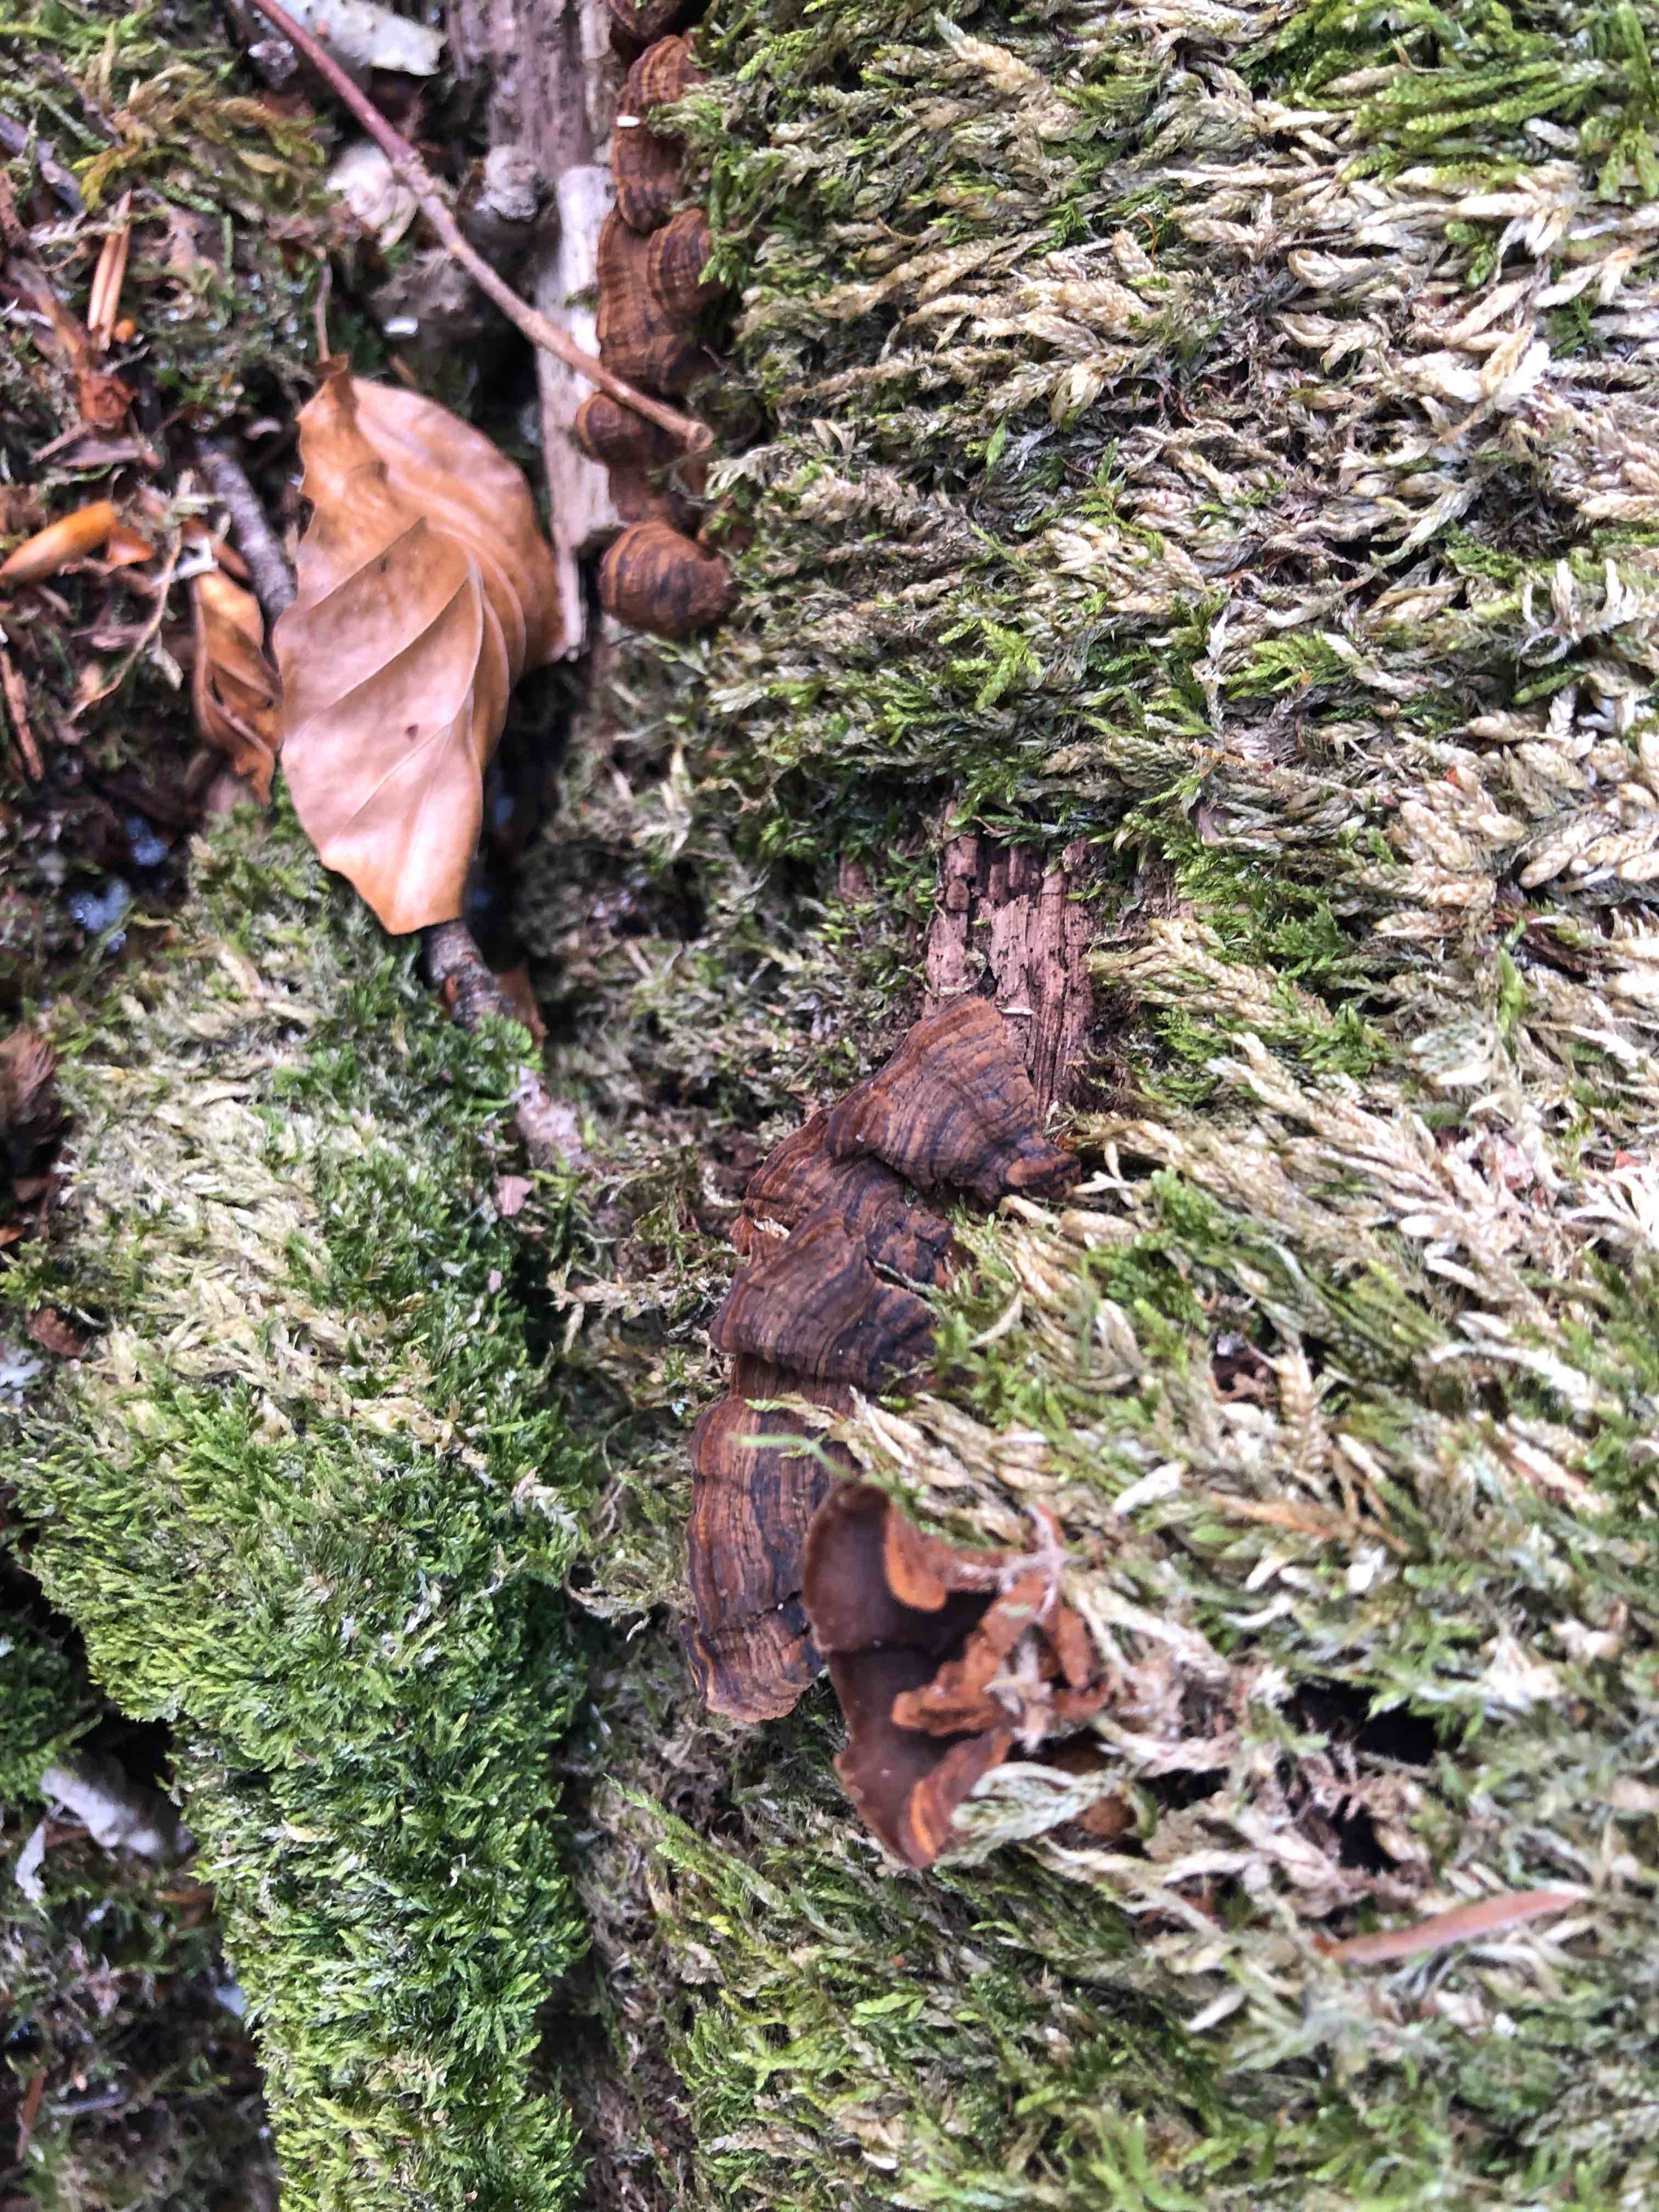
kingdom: Fungi
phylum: Basidiomycota
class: Agaricomycetes
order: Hymenochaetales
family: Hymenochaetaceae
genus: Hymenochaete
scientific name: Hymenochaete rubiginosa
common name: stiv ruslædersvamp
